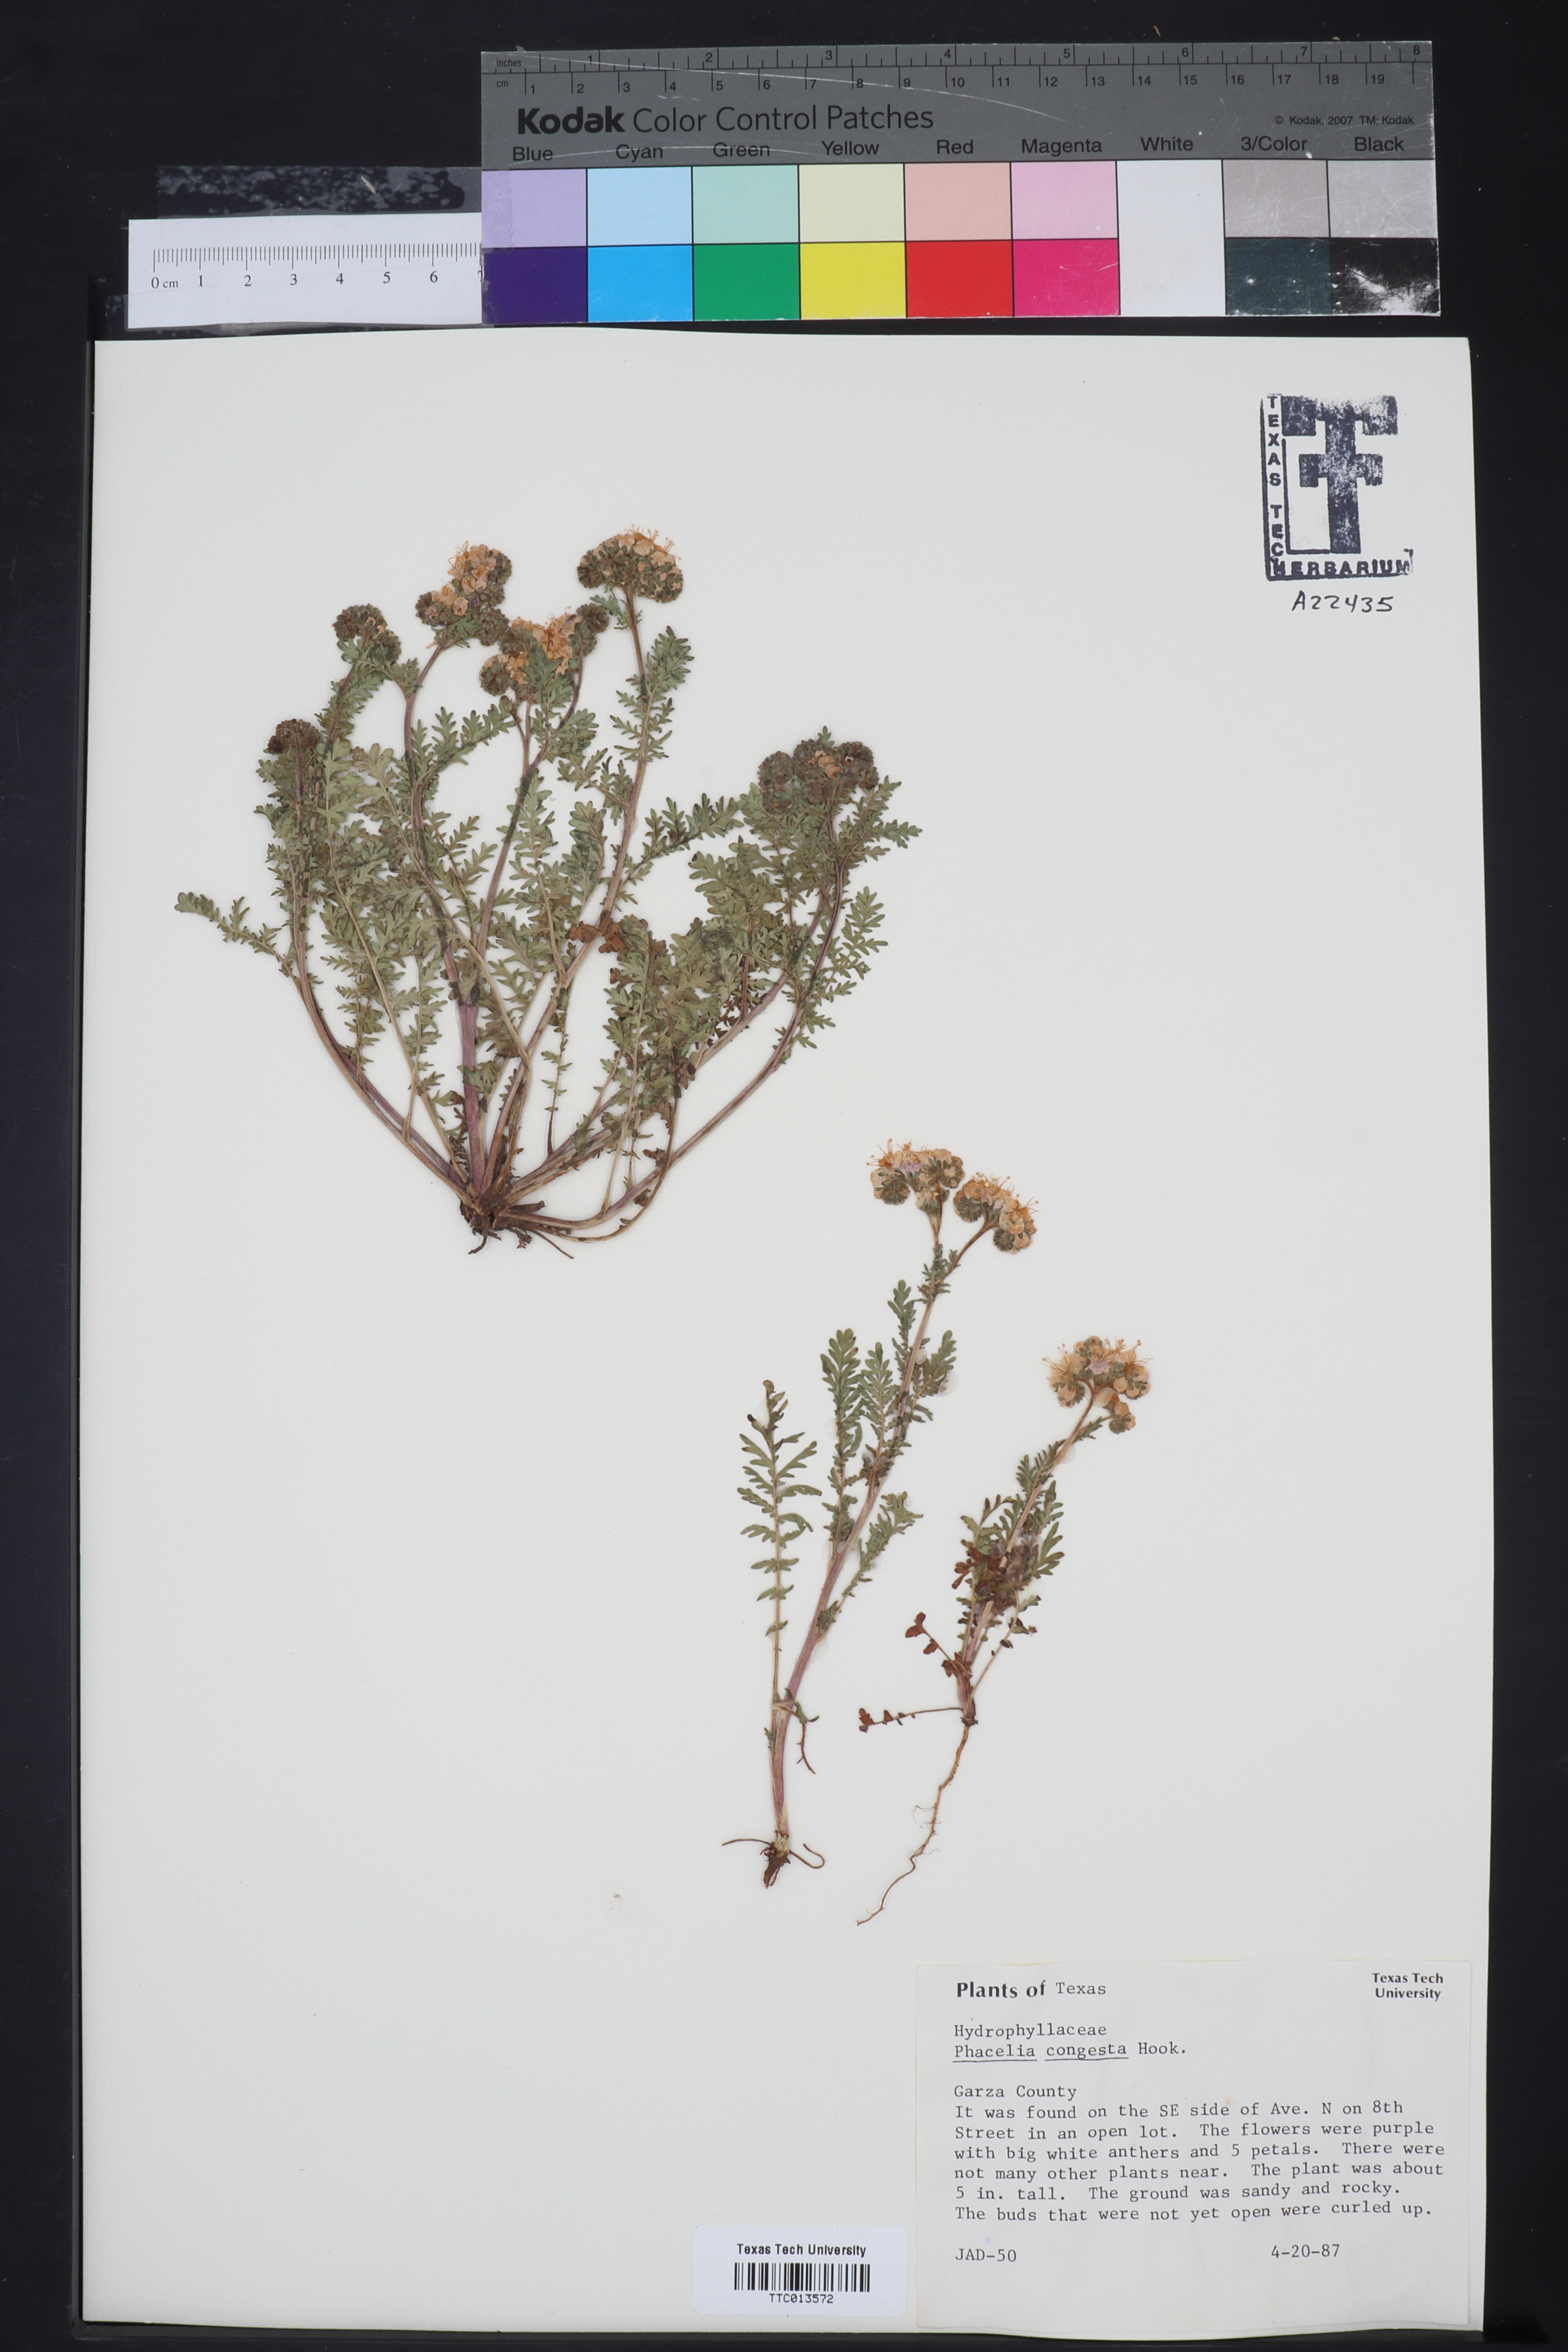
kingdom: Plantae
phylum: Tracheophyta
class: Magnoliopsida
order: Boraginales
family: Hydrophyllaceae
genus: Phacelia
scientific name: Phacelia congesta
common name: Blue curls
